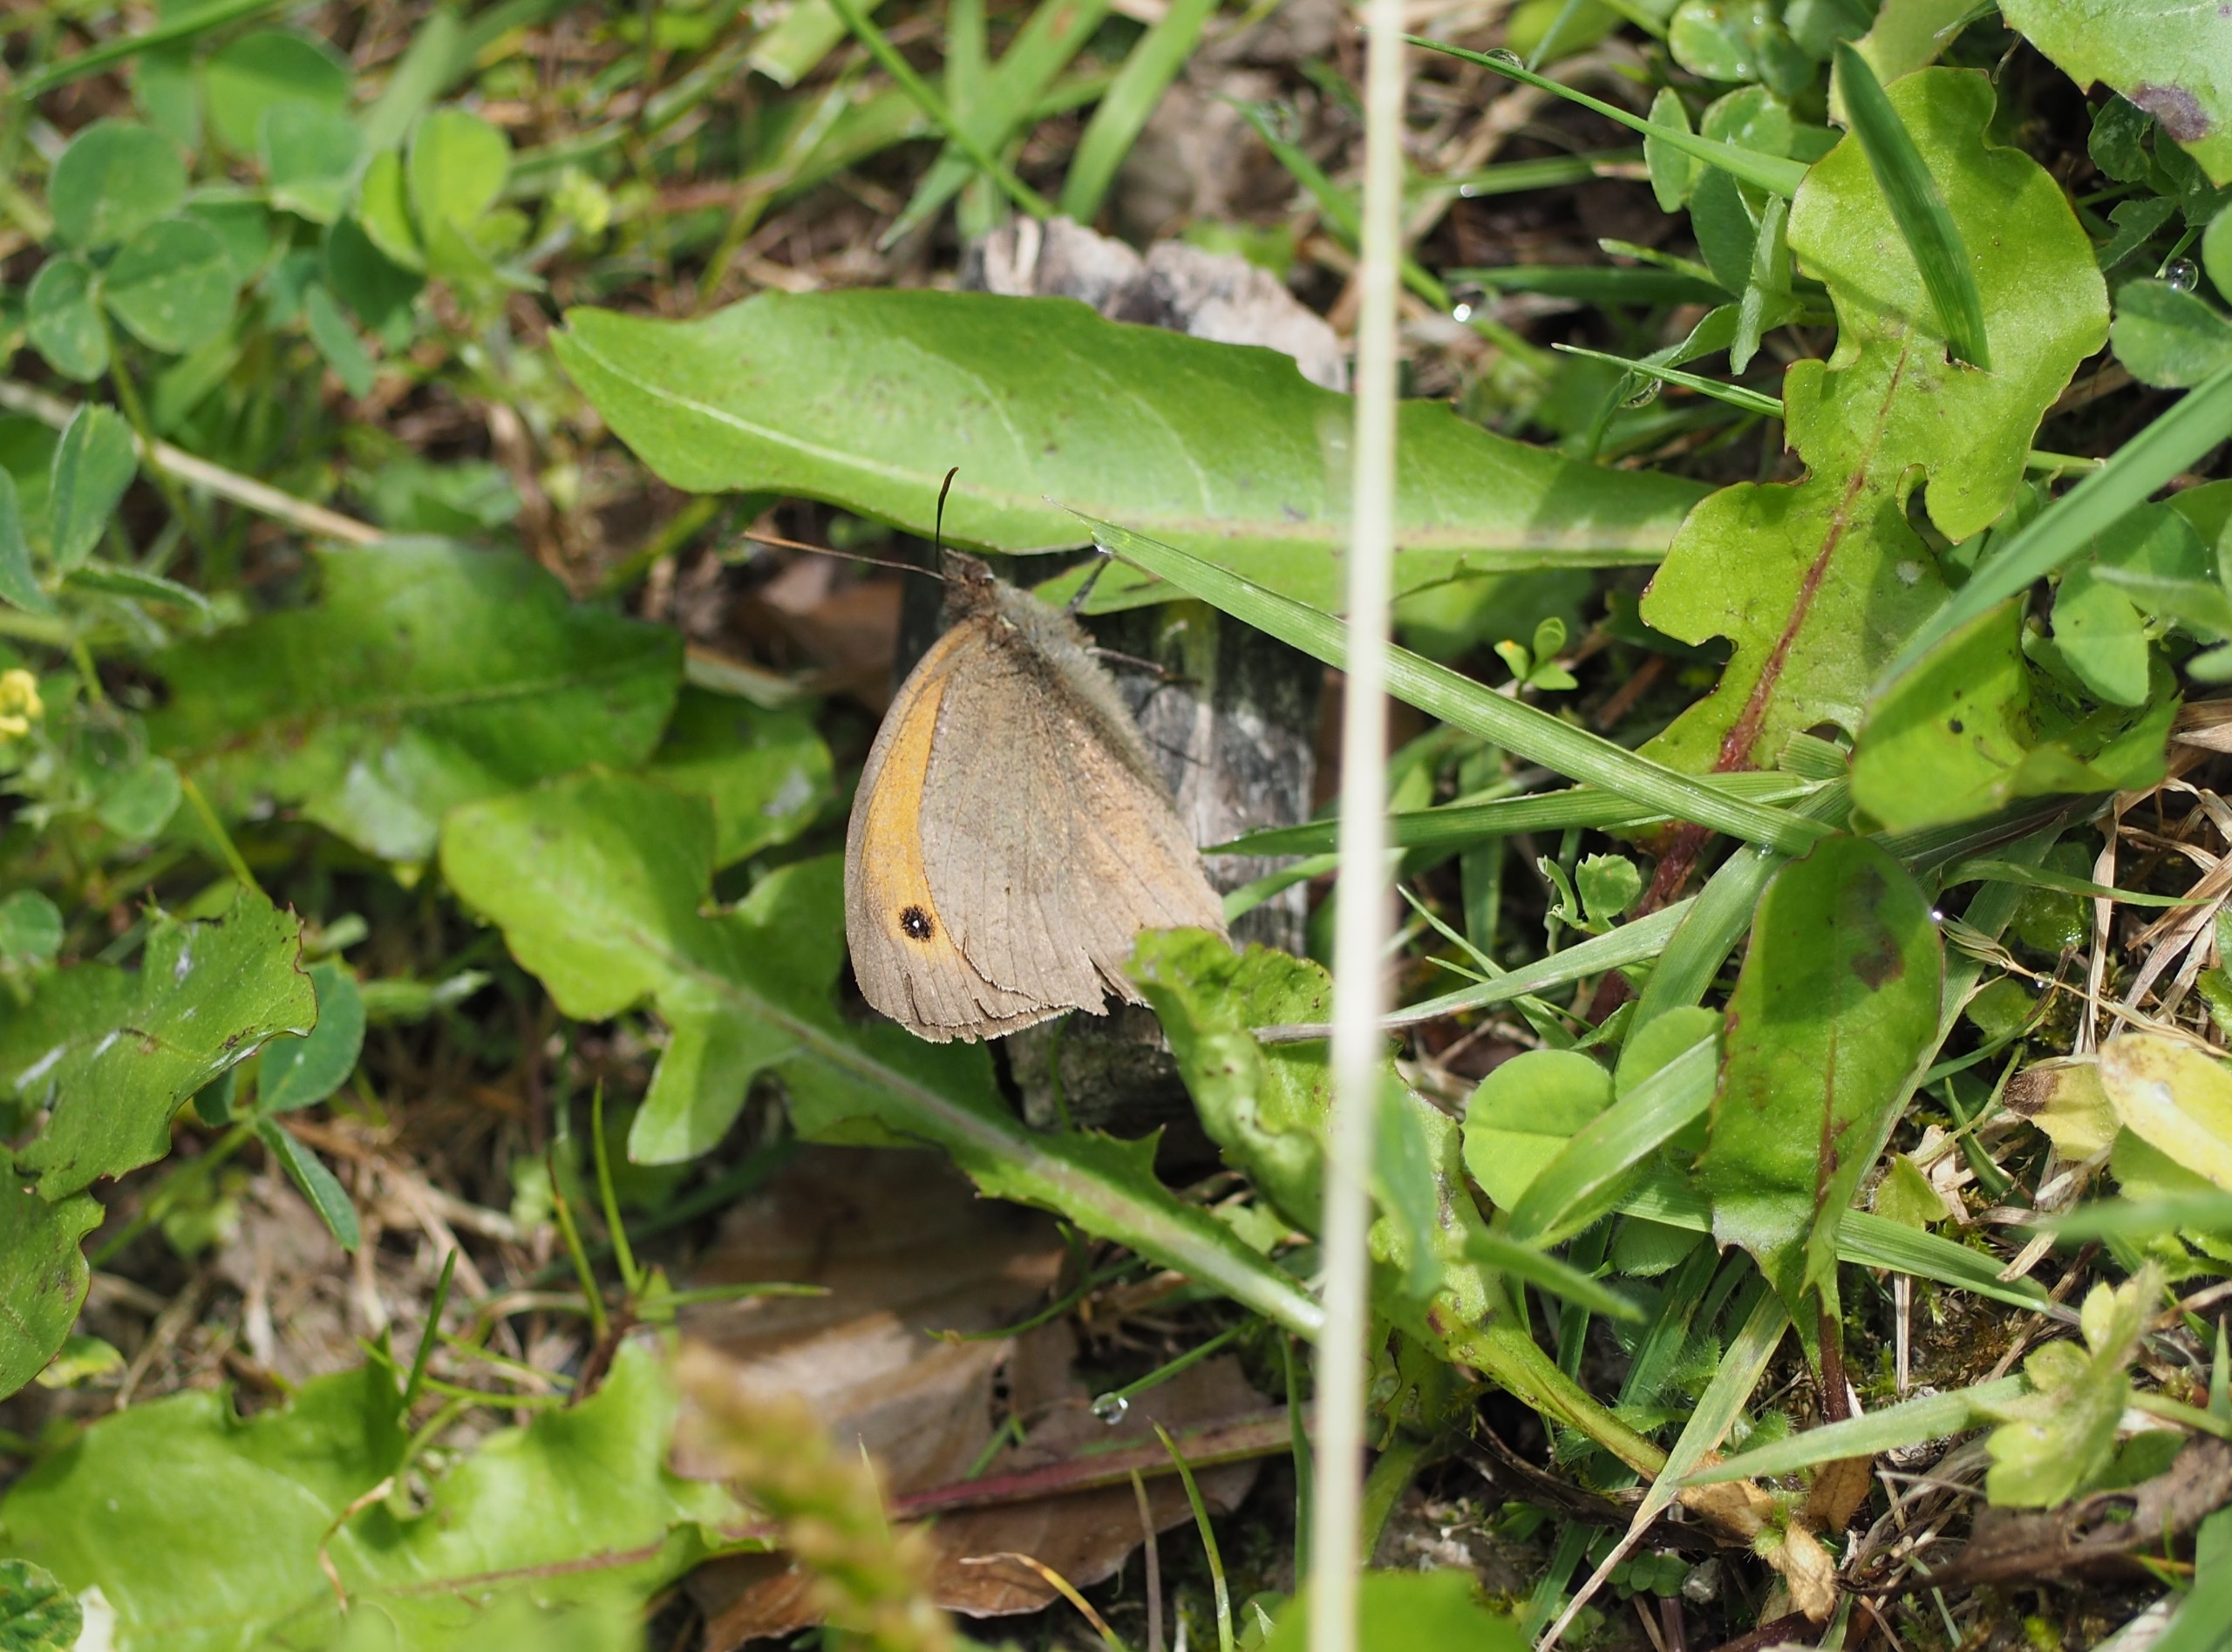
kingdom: Animalia
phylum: Arthropoda
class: Insecta
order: Lepidoptera
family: Nymphalidae
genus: Maniola
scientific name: Maniola jurtina
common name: Græsrandøje
